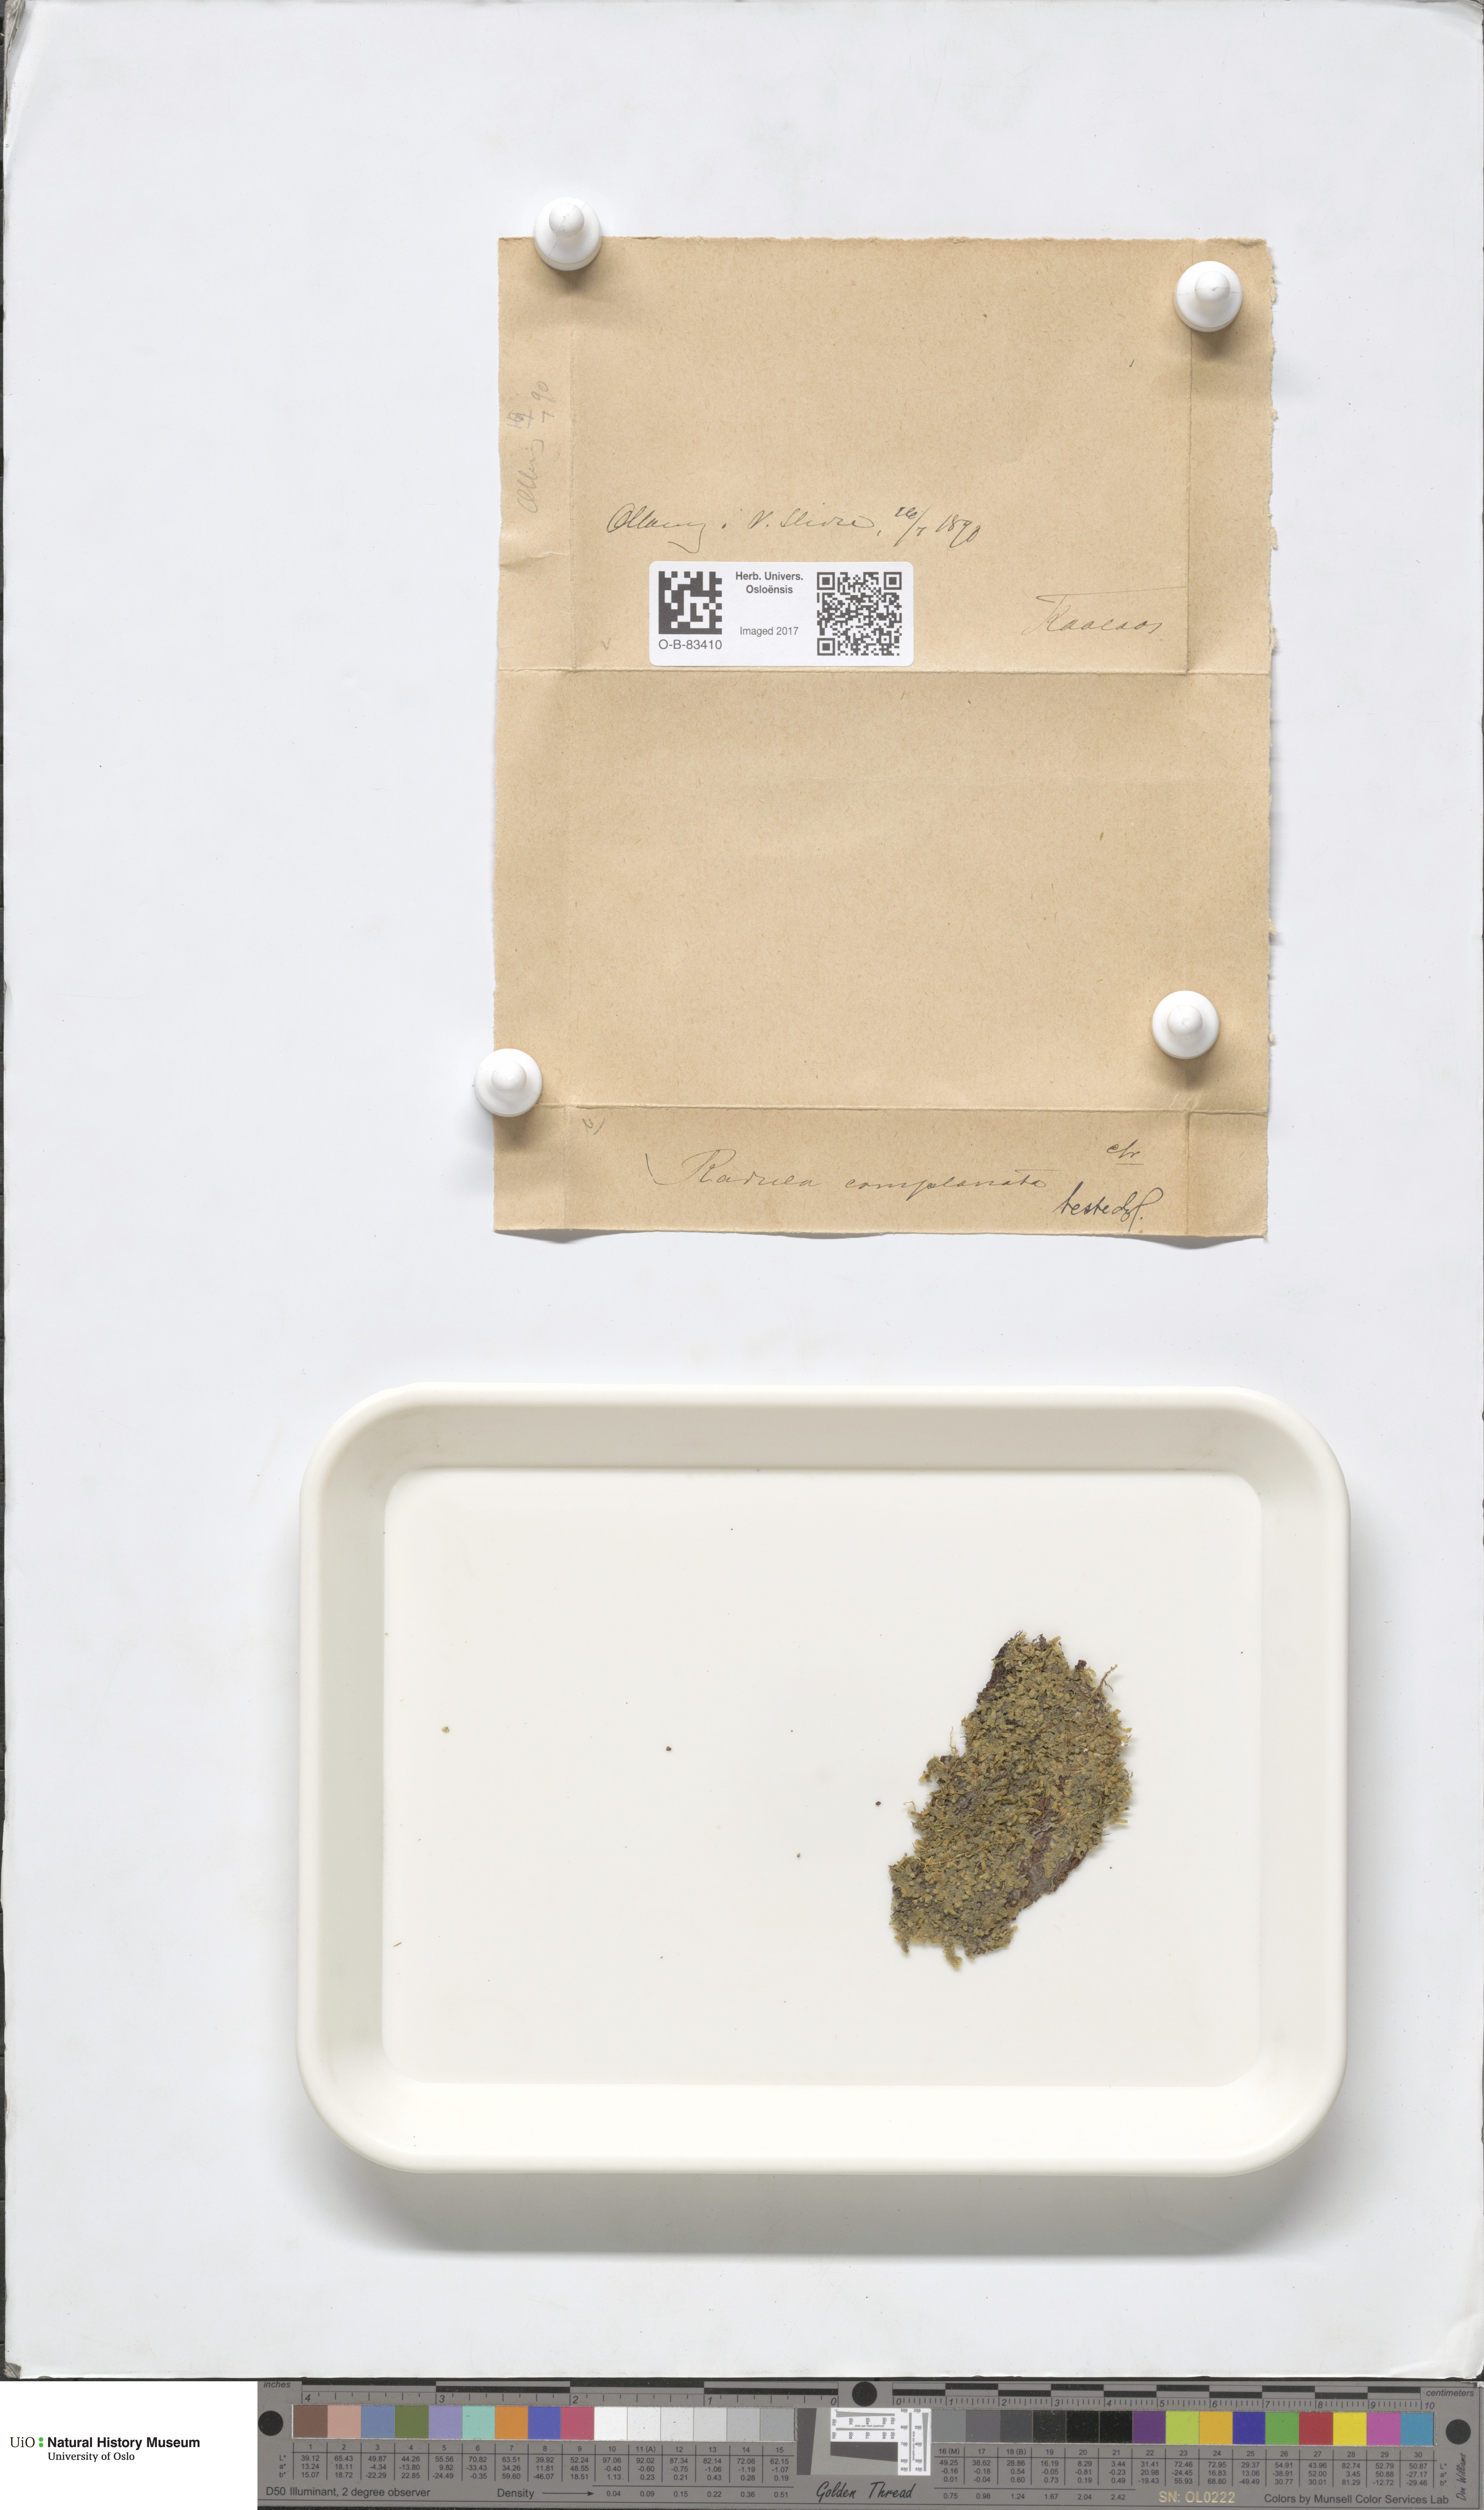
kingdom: Plantae
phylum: Marchantiophyta
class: Jungermanniopsida
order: Porellales
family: Radulaceae
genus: Radula
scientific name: Radula complanata
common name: Flat-leaved scalewort
